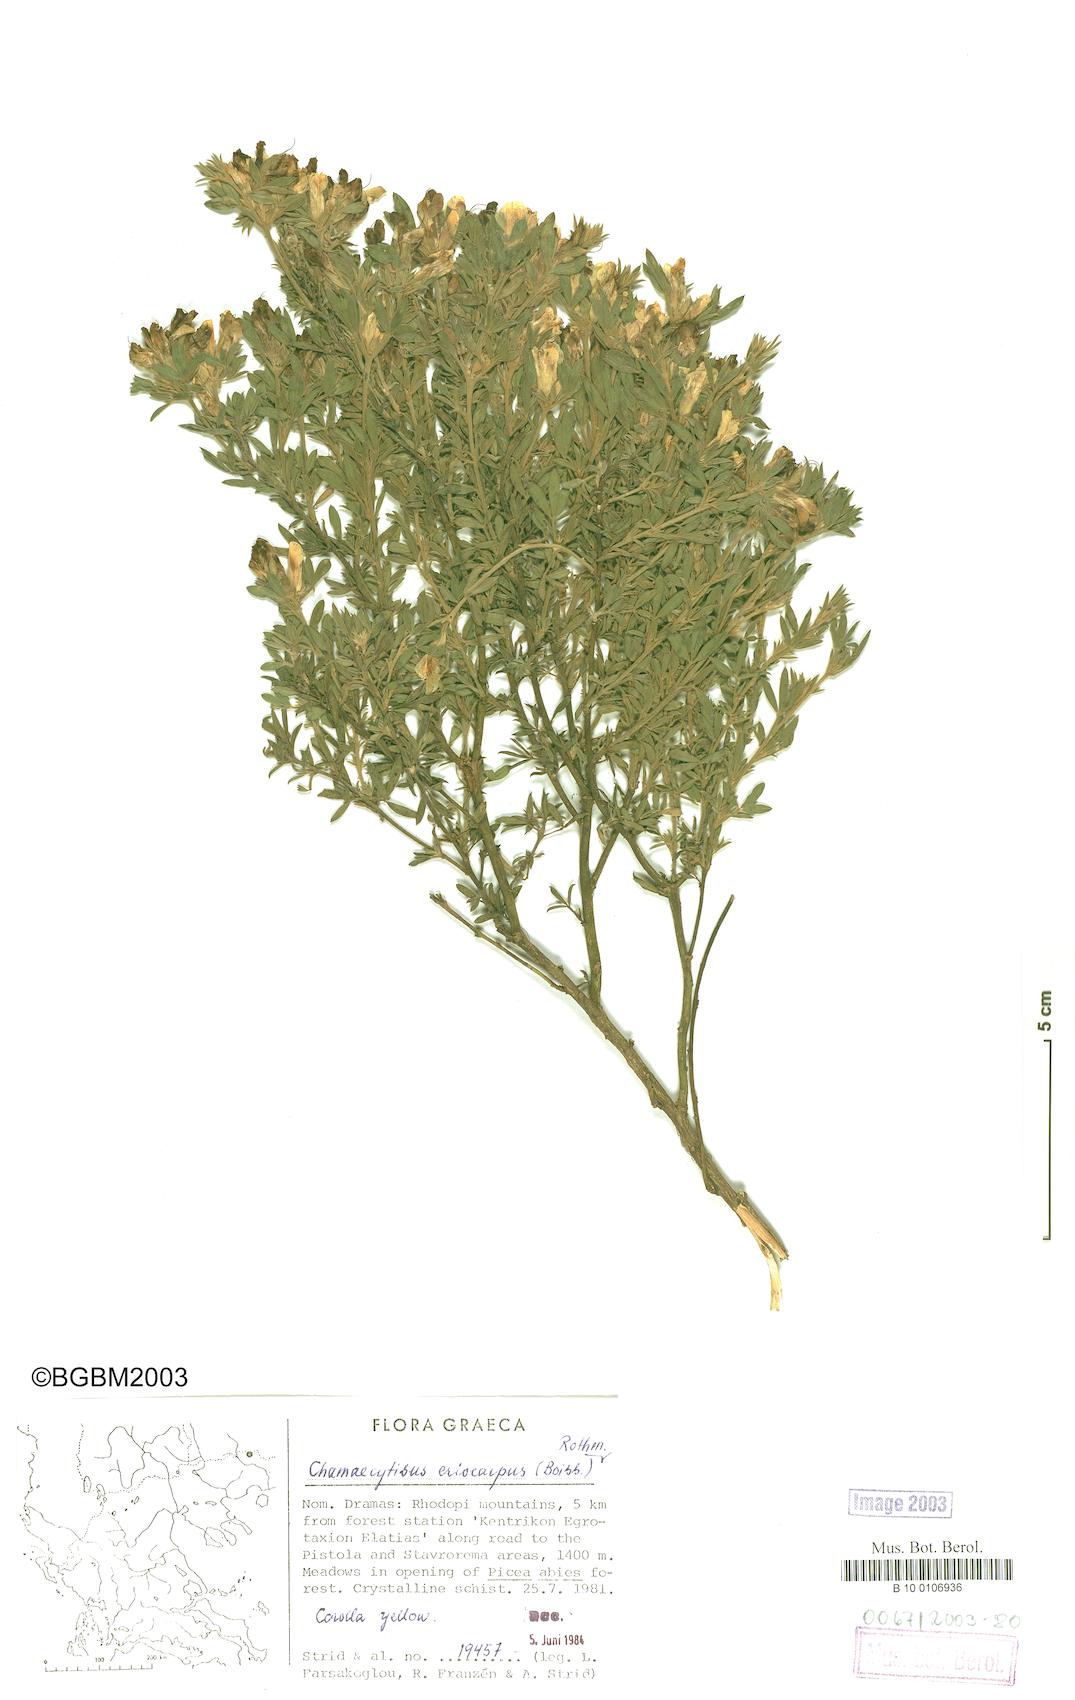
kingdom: Plantae
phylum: Tracheophyta
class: Magnoliopsida
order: Fabales
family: Fabaceae
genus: Chamaecytisus
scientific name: Chamaecytisus eriocarpus
